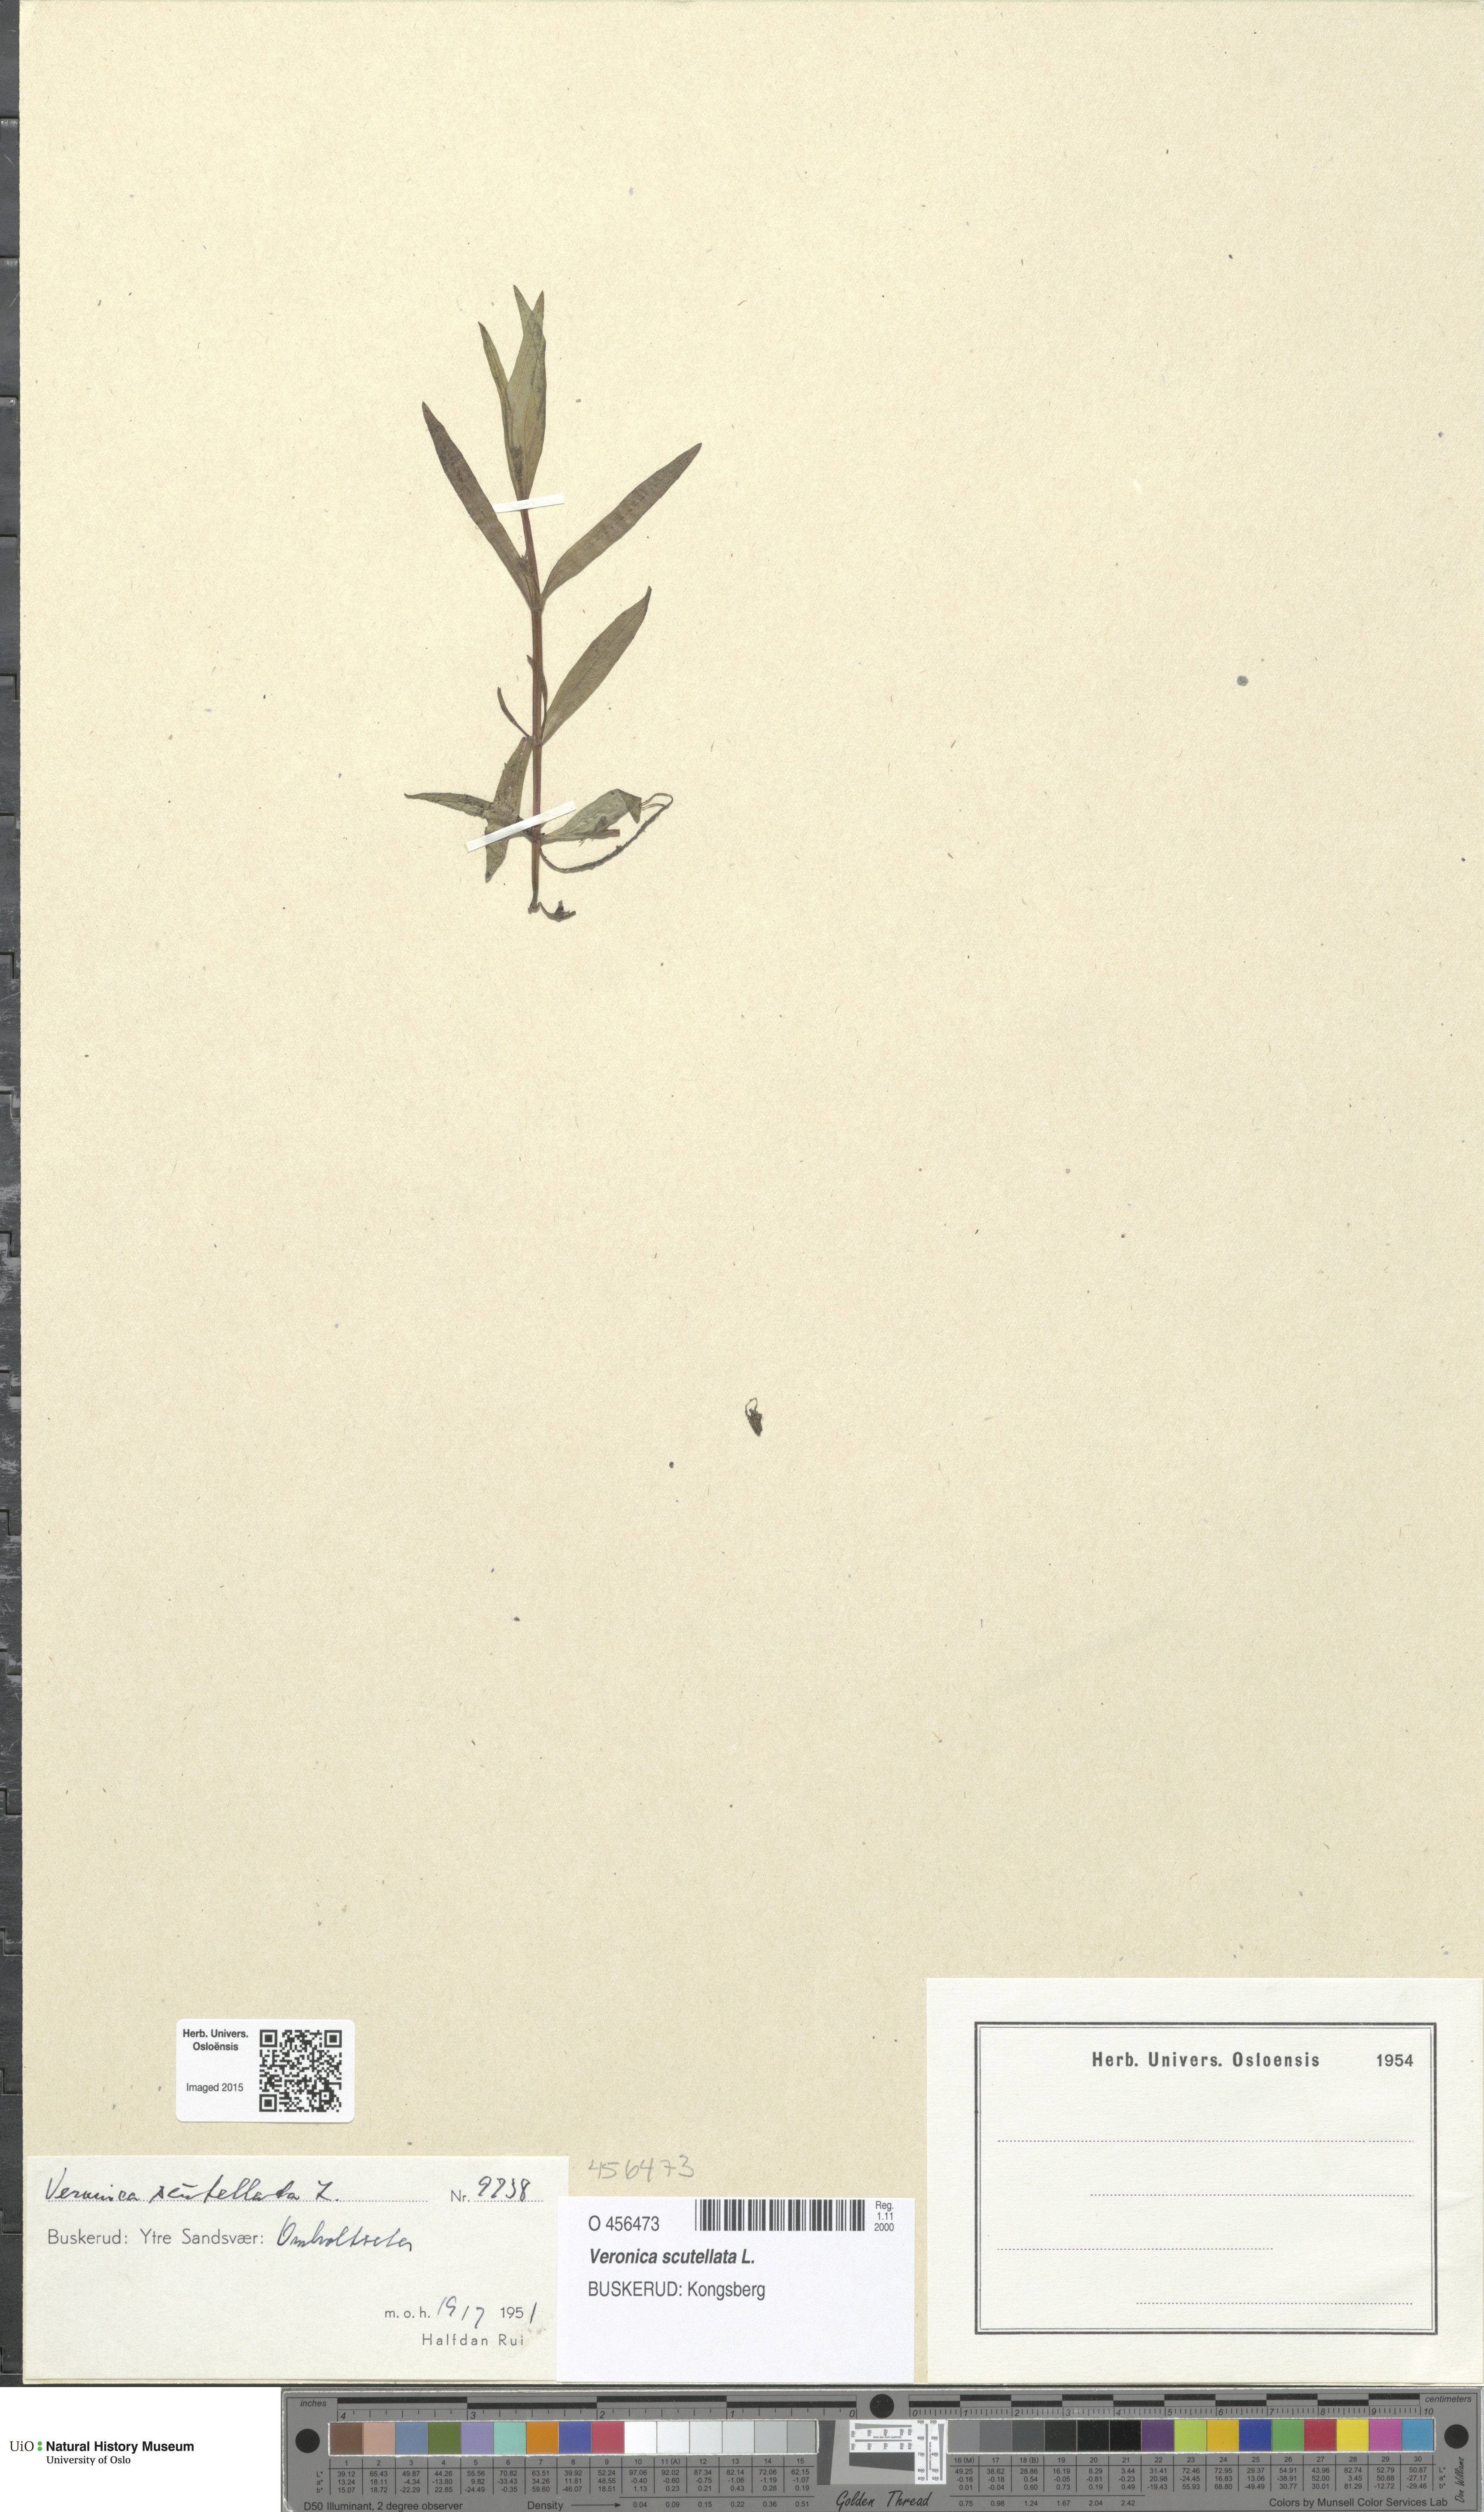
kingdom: Plantae
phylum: Tracheophyta
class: Magnoliopsida
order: Lamiales
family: Plantaginaceae
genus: Veronica
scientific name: Veronica scutellata
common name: Marsh speedwell
